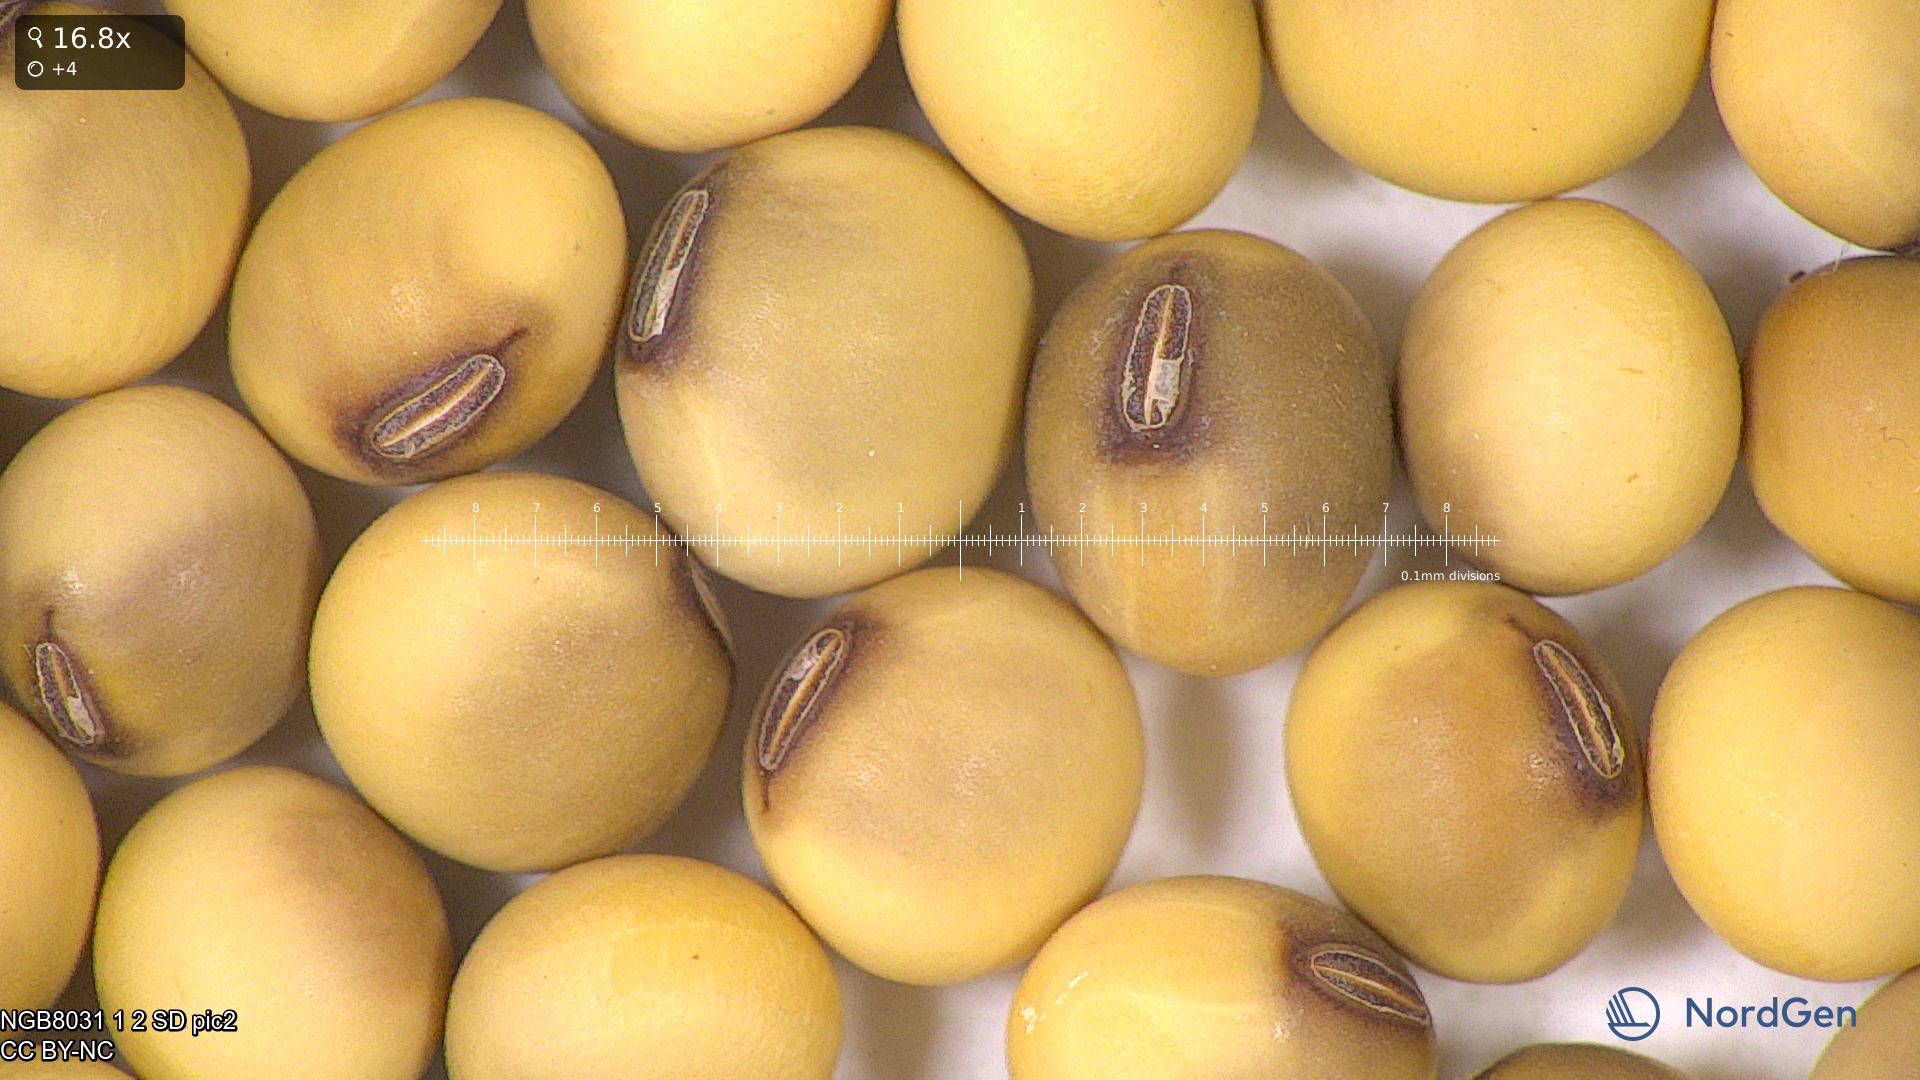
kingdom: Plantae
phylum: Tracheophyta
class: Magnoliopsida
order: Fabales
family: Fabaceae
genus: Glycine
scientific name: Glycine max
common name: Soya-bean
